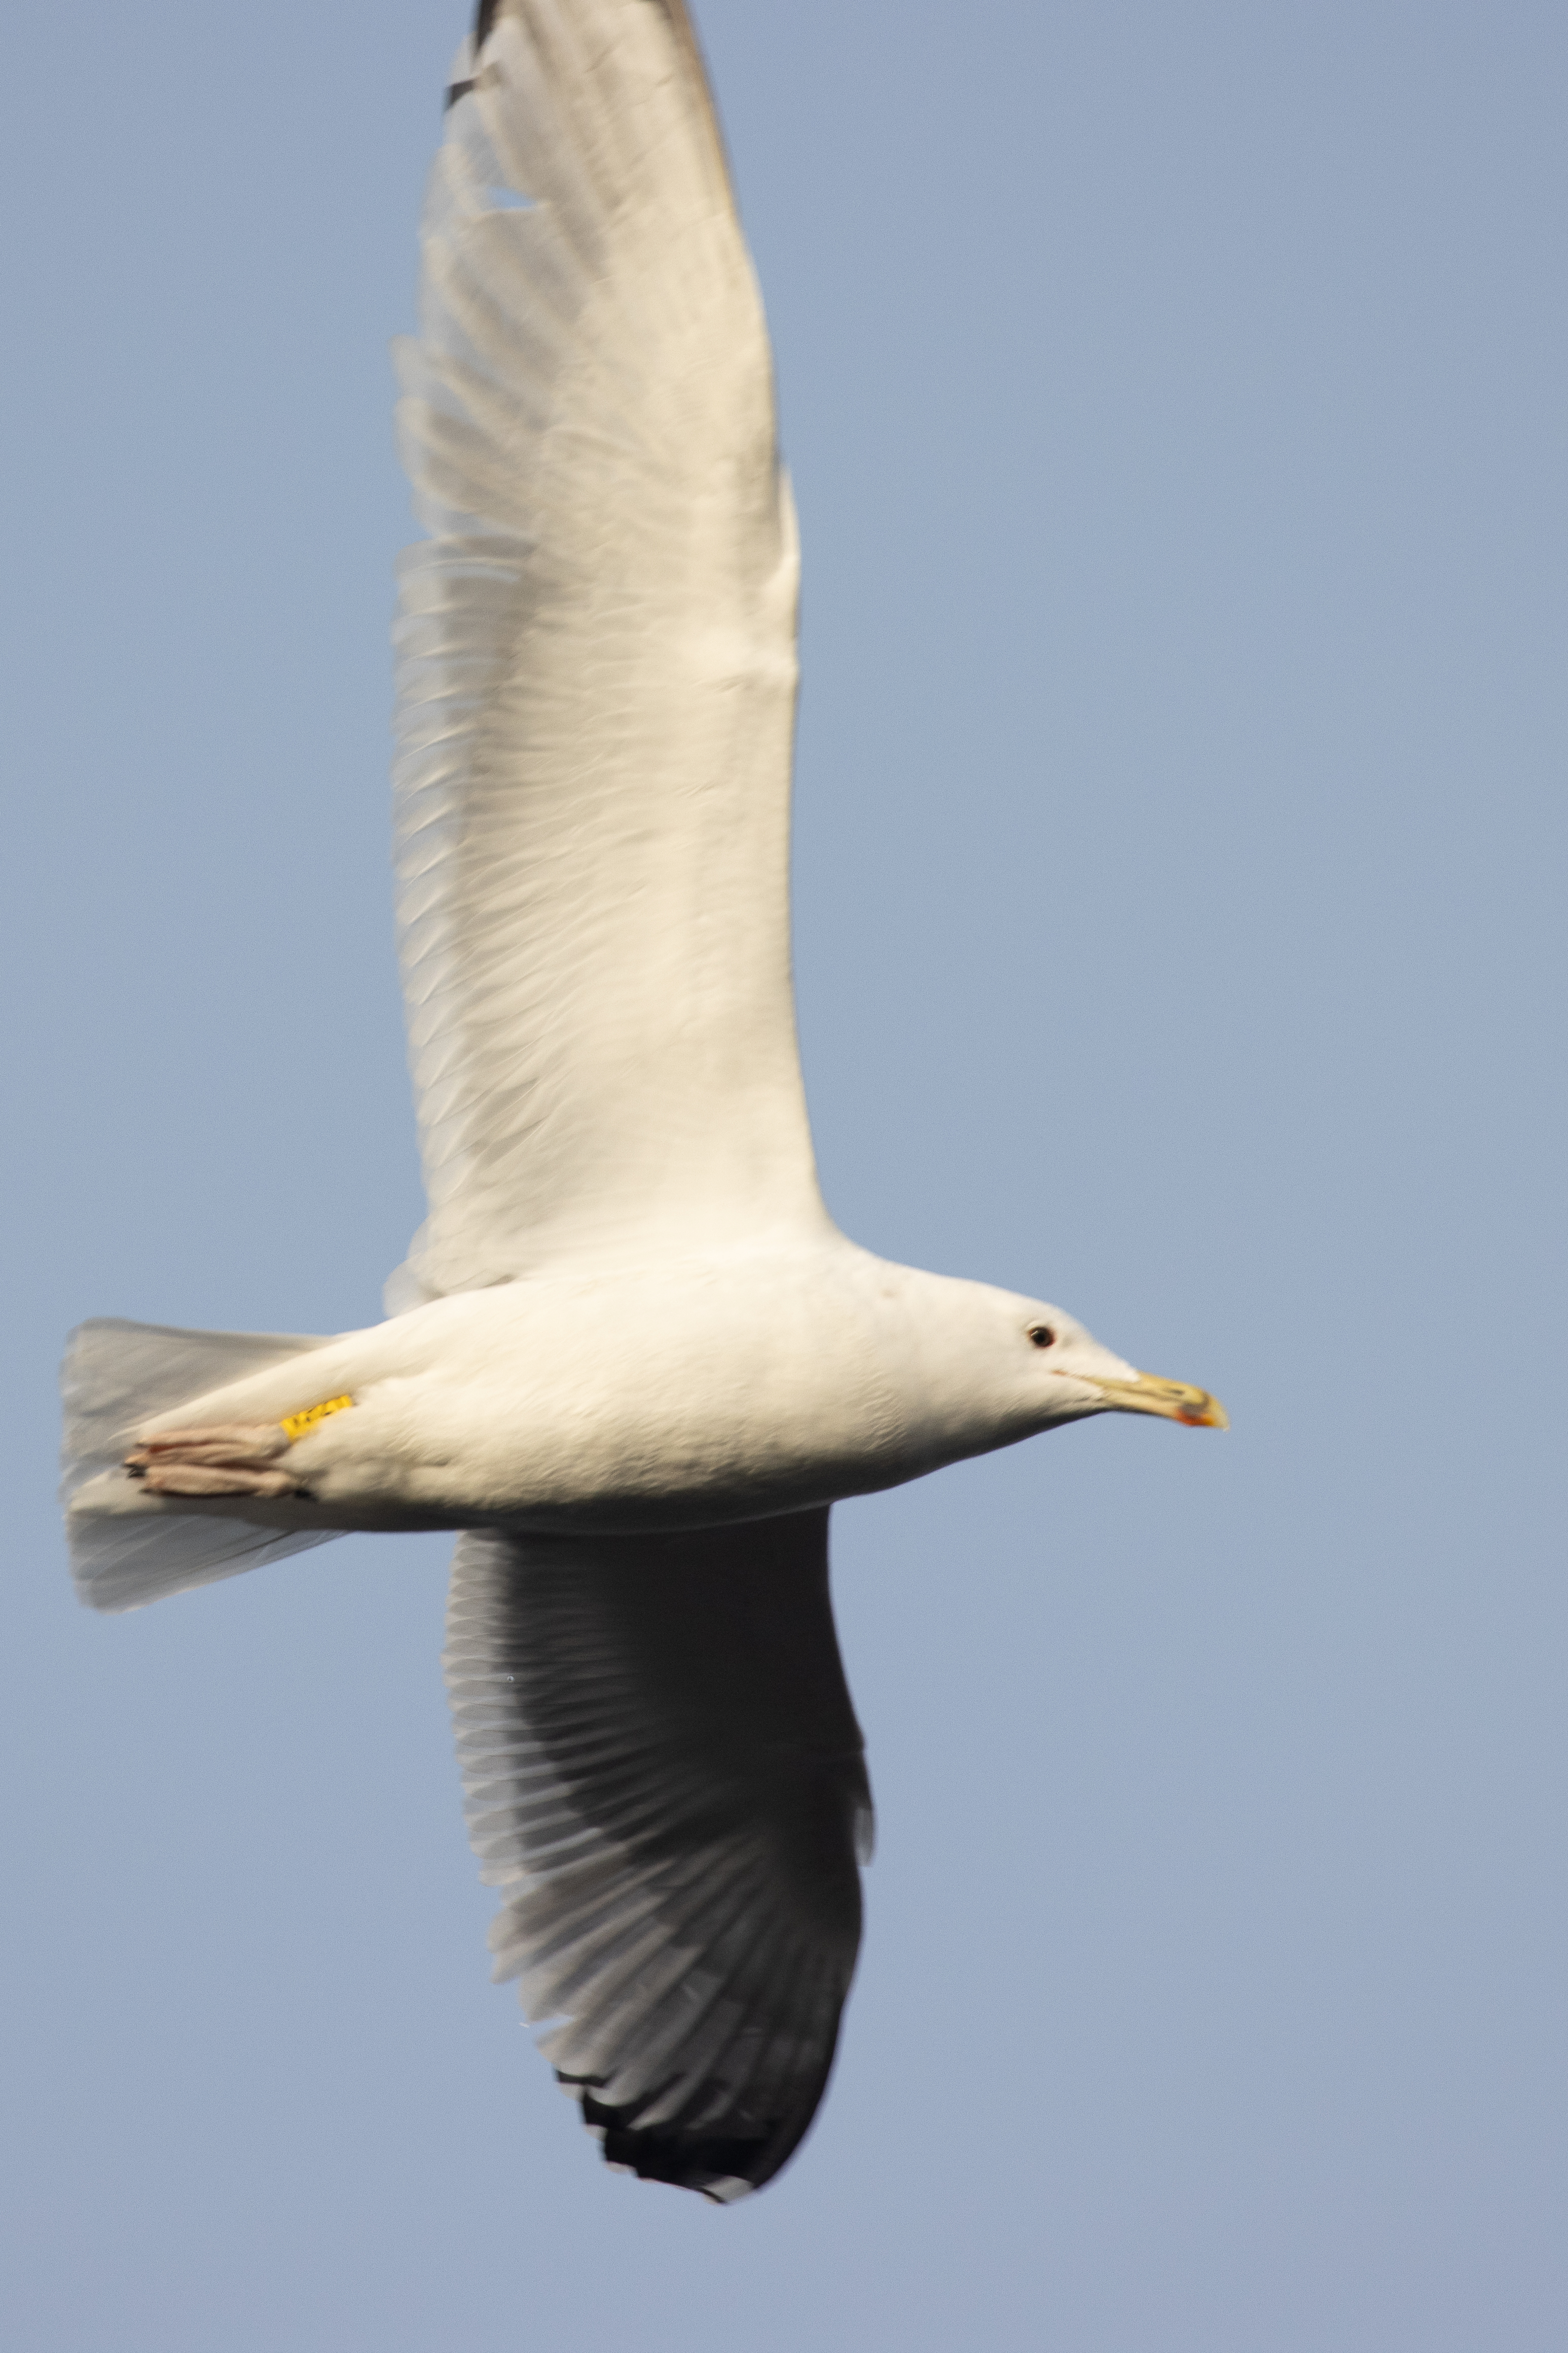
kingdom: Animalia
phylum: Chordata
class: Aves
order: Charadriiformes
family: Laridae
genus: Larus
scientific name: Larus cachinnans
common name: Kaspisk måge
